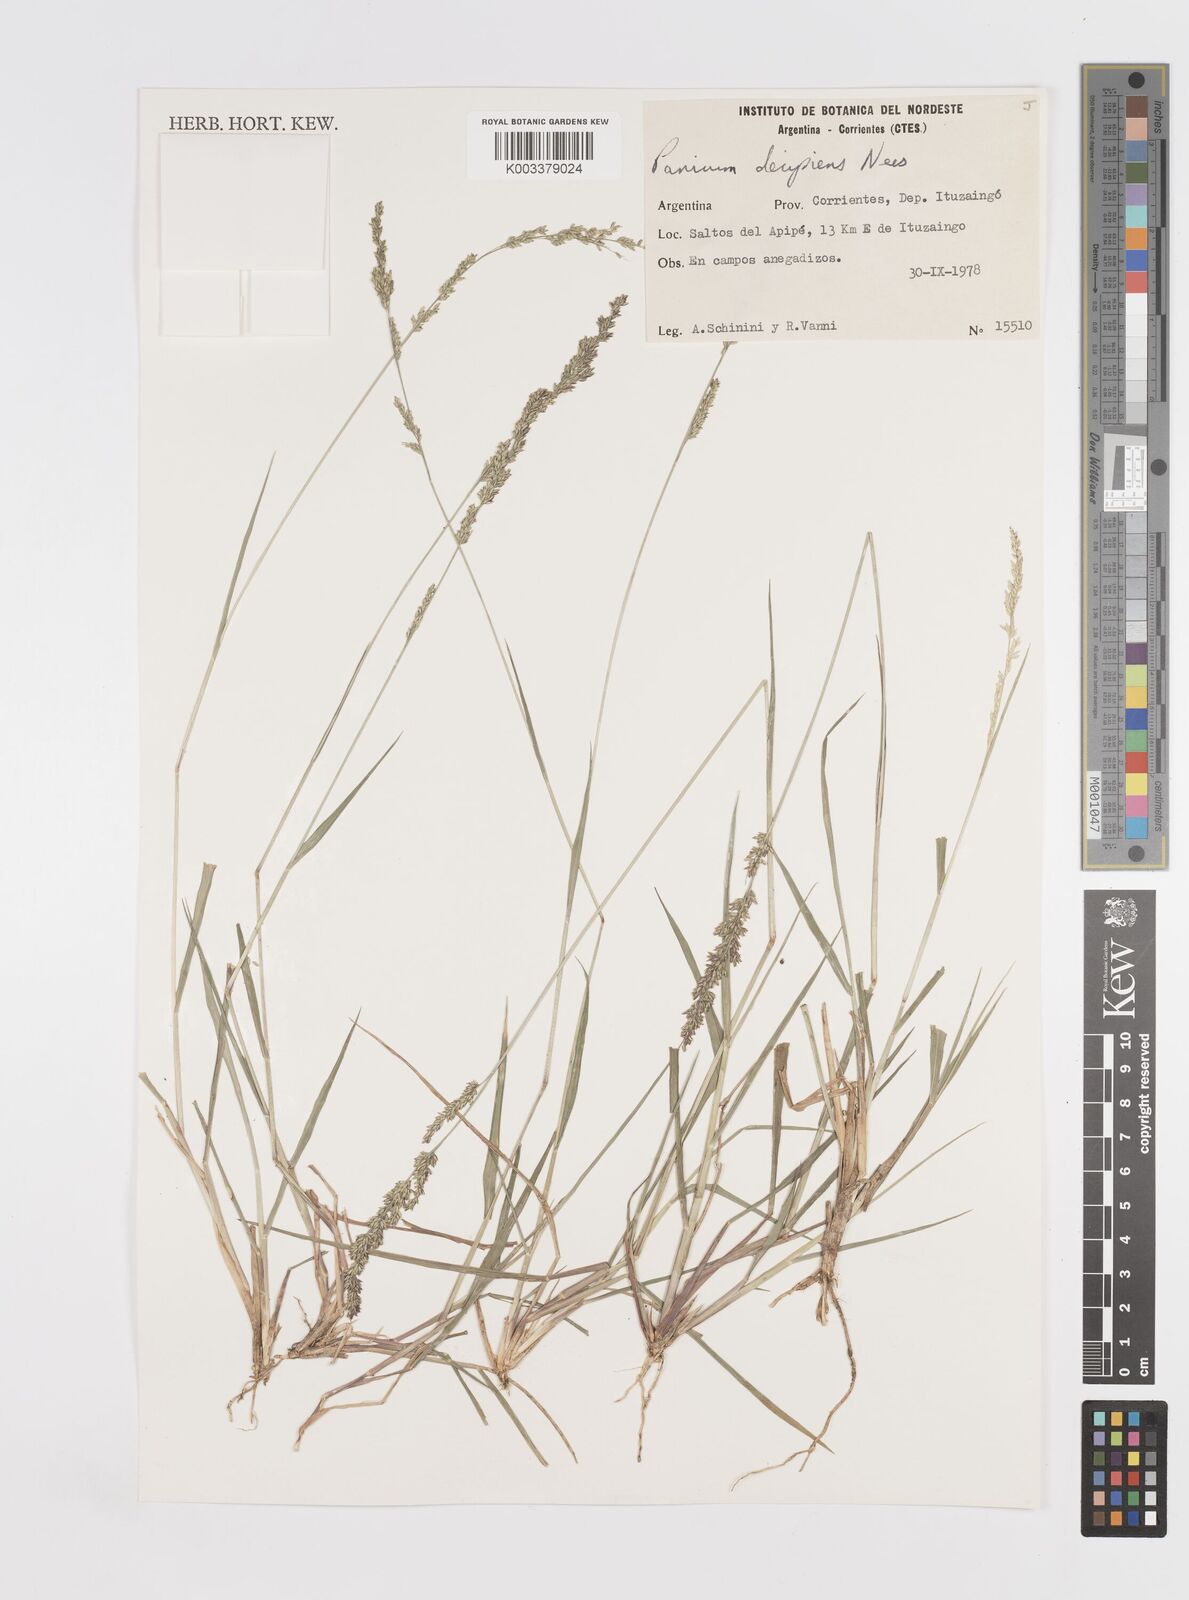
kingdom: Plantae
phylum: Tracheophyta
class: Liliopsida
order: Poales
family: Poaceae
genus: Steinchisma
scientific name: Steinchisma decipiens
